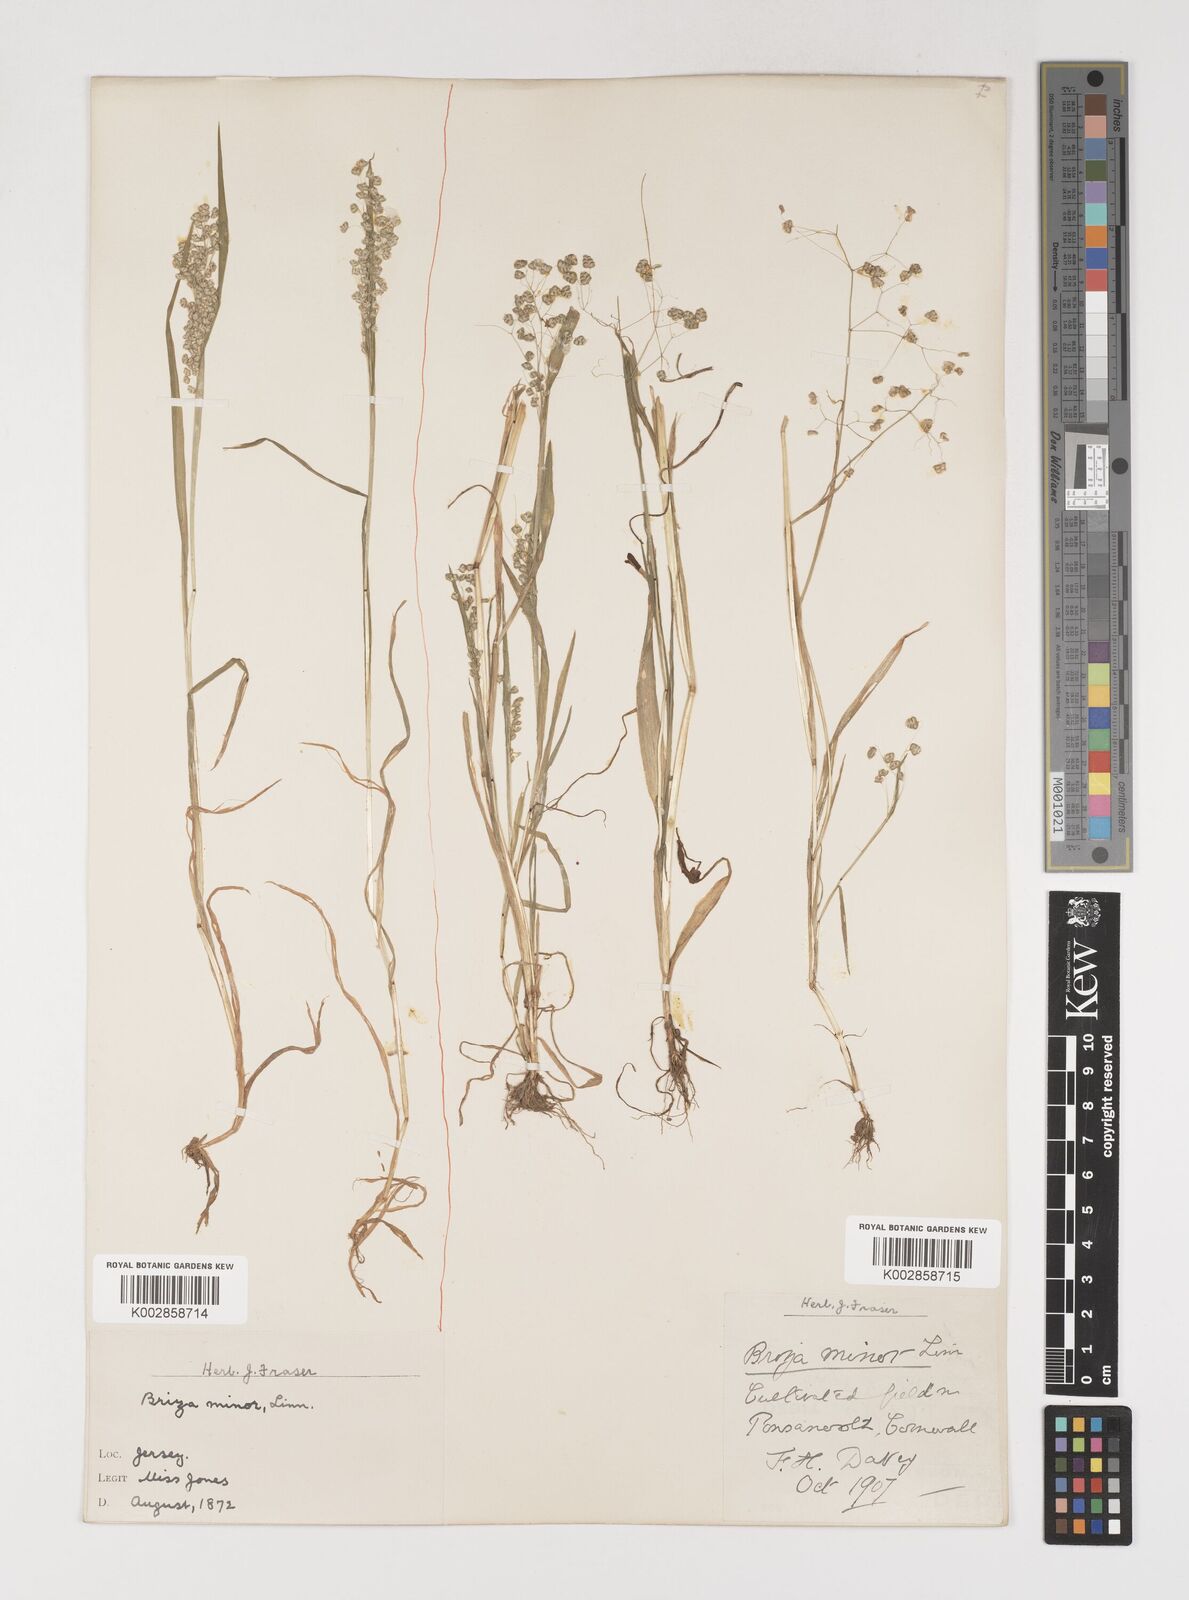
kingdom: Plantae
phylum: Tracheophyta
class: Liliopsida
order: Poales
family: Poaceae
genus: Briza
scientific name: Briza minor
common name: Lesser quaking-grass
